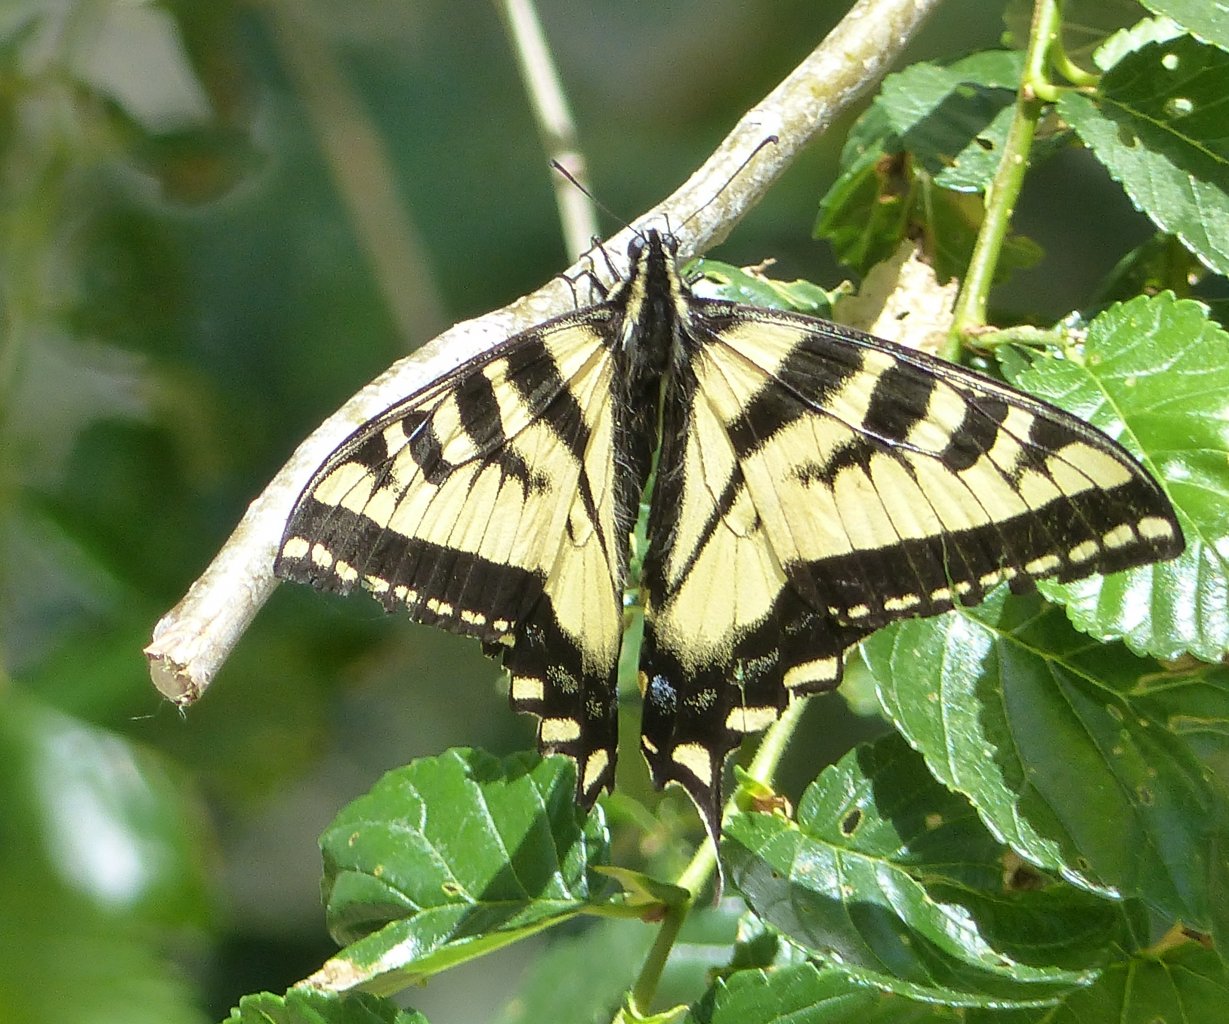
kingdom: Animalia
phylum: Arthropoda
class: Insecta
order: Lepidoptera
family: Papilionidae
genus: Pterourus
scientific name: Pterourus rutulus
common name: Western Tiger Swallowtail
